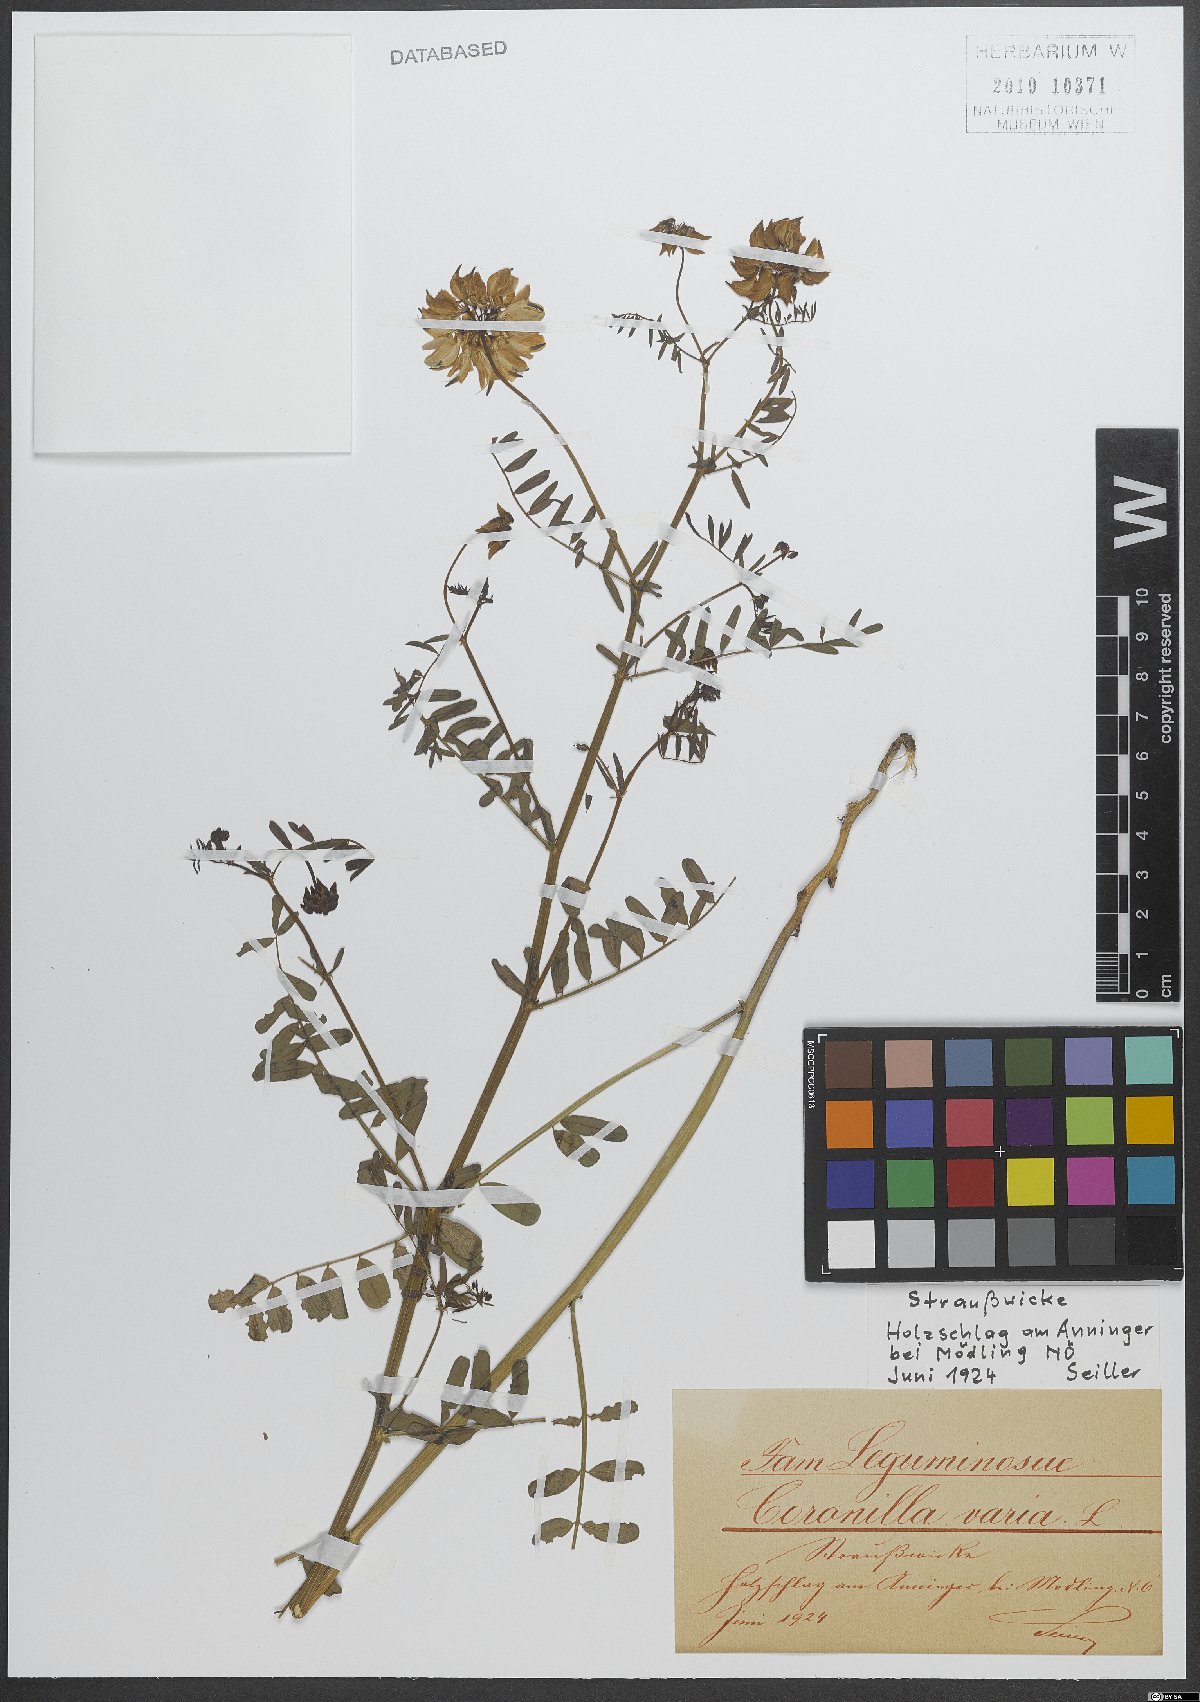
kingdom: Plantae
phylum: Tracheophyta
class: Magnoliopsida
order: Fabales
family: Fabaceae
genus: Coronilla
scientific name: Coronilla varia
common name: Crownvetch
